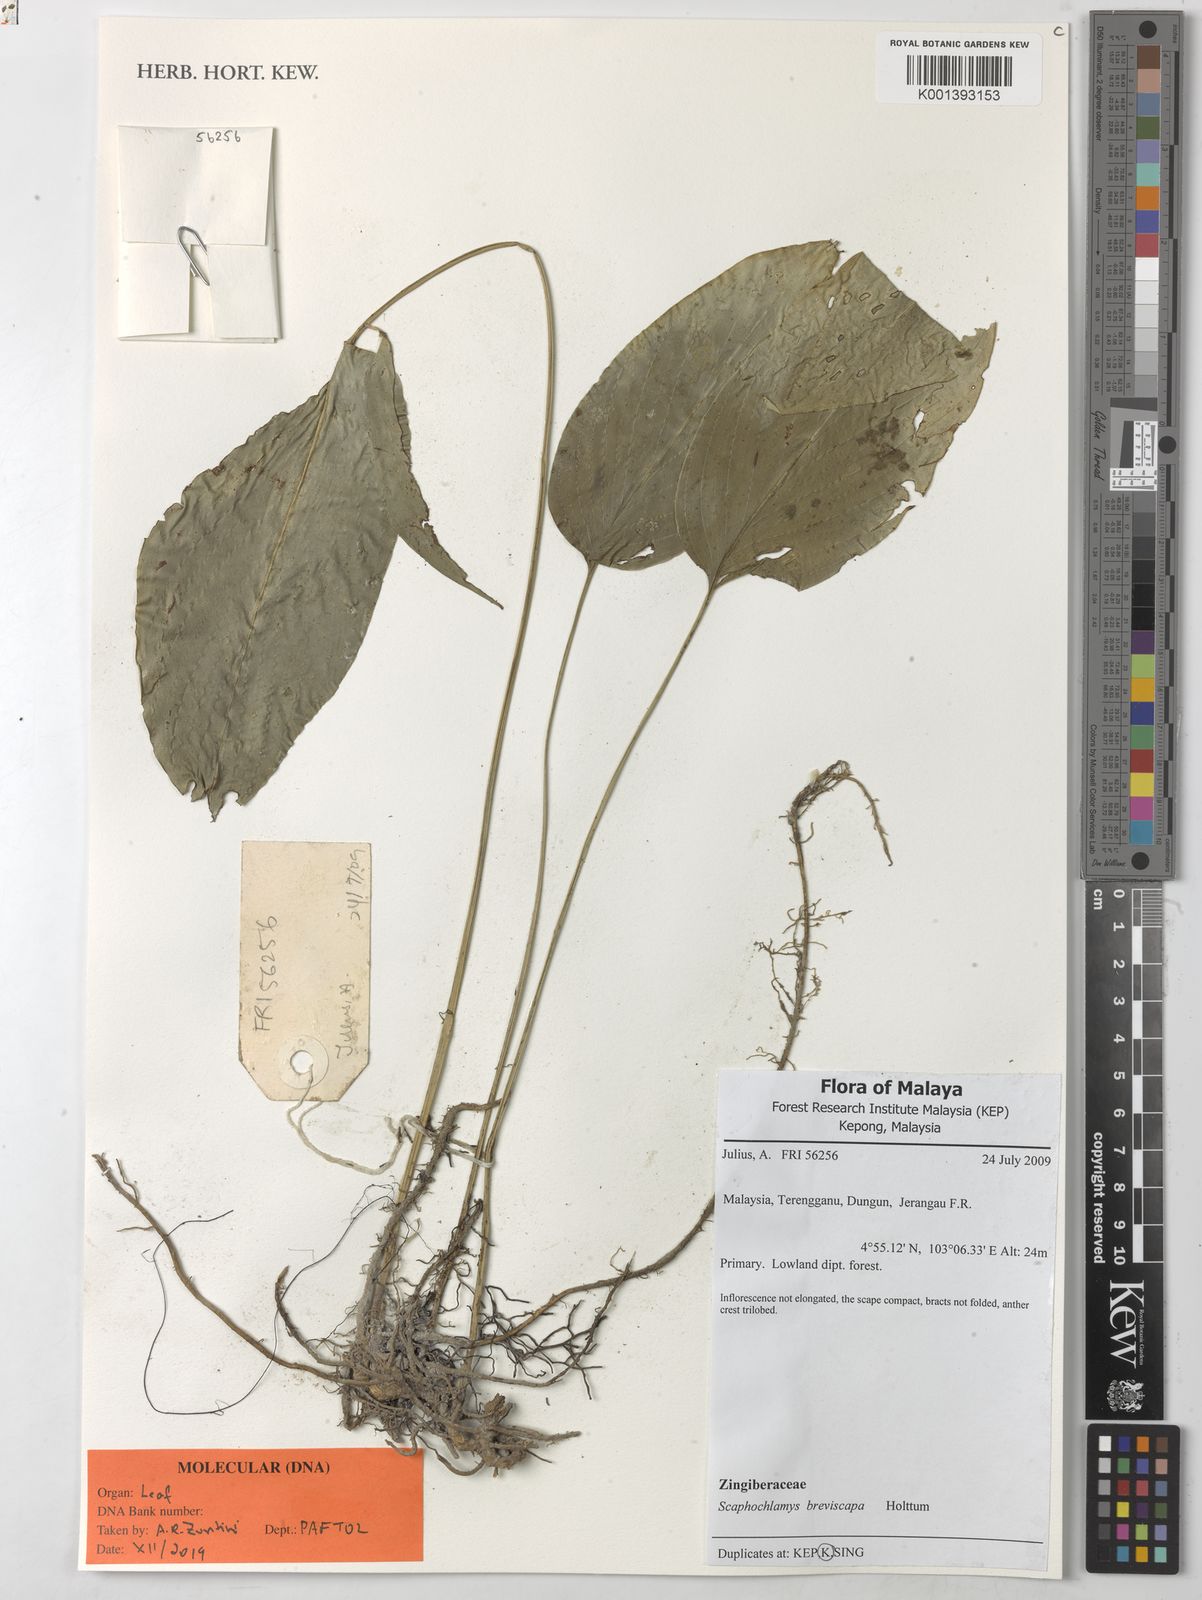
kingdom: Plantae
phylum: Tracheophyta
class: Liliopsida
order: Zingiberales
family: Zingiberaceae
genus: Scaphochlamys
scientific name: Scaphochlamys breviscapa
